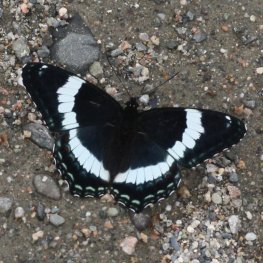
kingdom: Animalia
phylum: Arthropoda
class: Insecta
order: Lepidoptera
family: Nymphalidae
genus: Limenitis
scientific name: Limenitis arthemis
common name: Red-spotted Admiral
